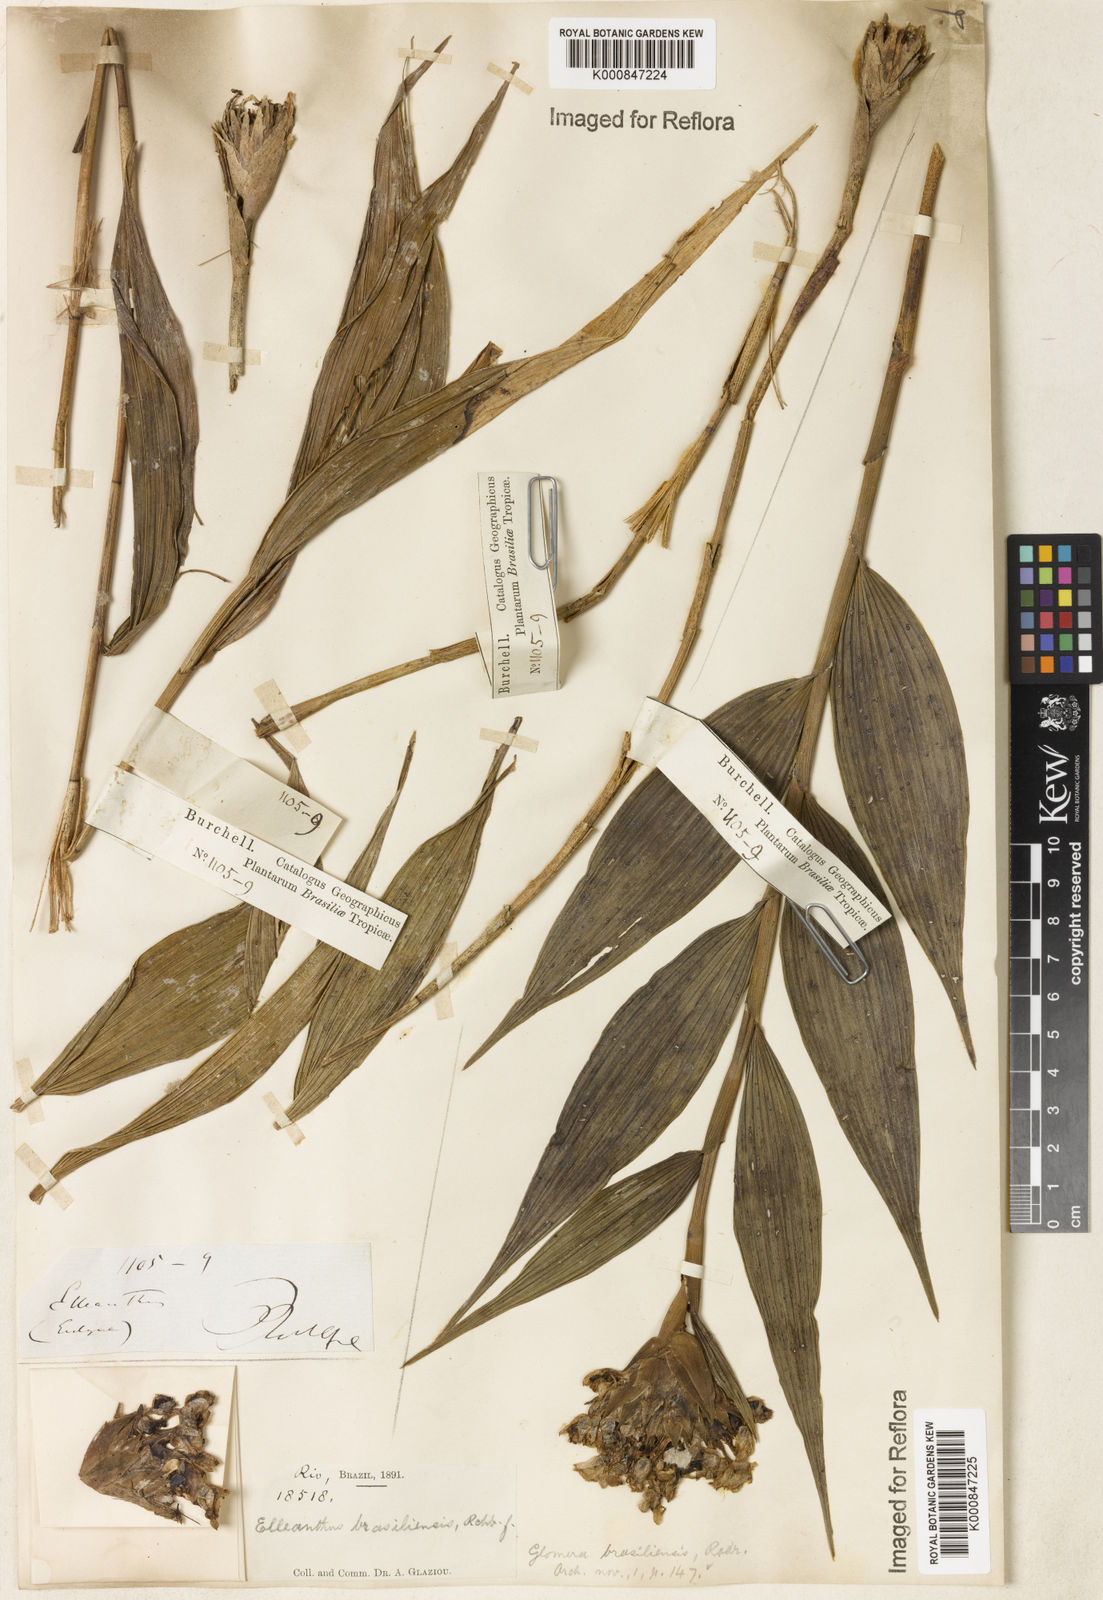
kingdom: Plantae
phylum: Tracheophyta
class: Liliopsida
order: Asparagales
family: Orchidaceae
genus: Elleanthus
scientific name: Elleanthus brasiliensis
